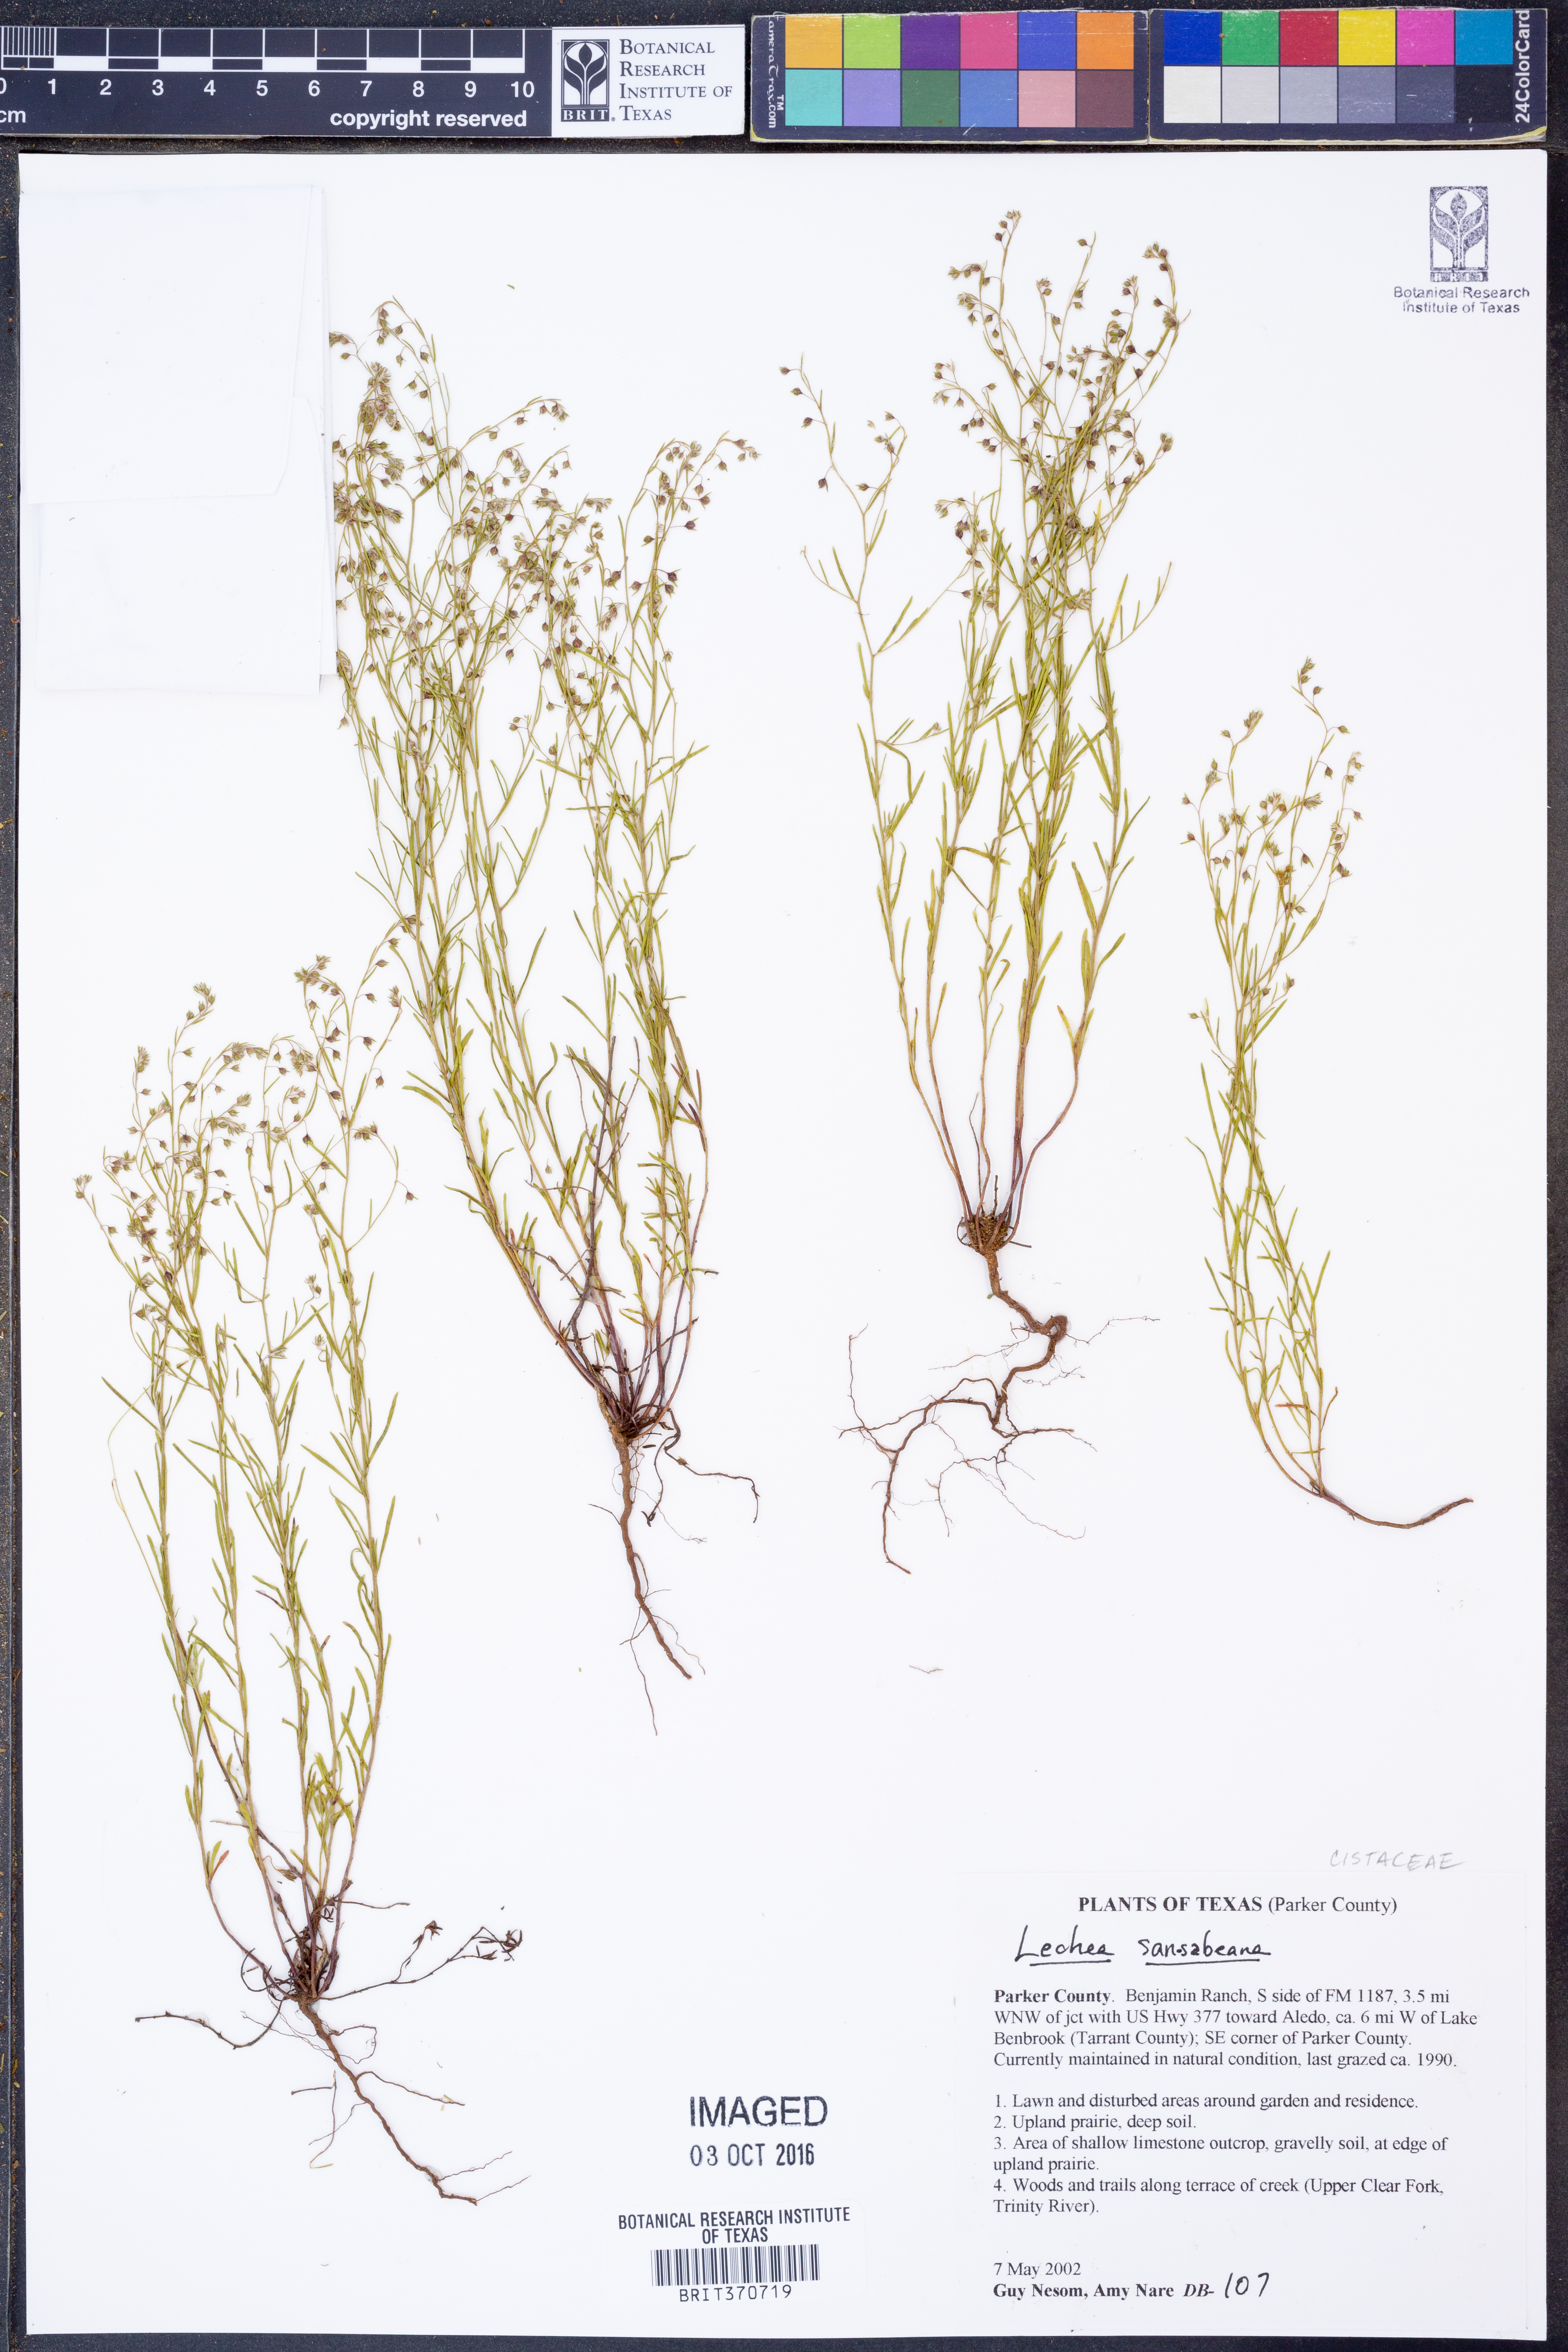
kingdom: Plantae
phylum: Tracheophyta
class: Magnoliopsida
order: Malvales
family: Cistaceae
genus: Lechea
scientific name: Lechea san-sabeana
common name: San saba pinweed
